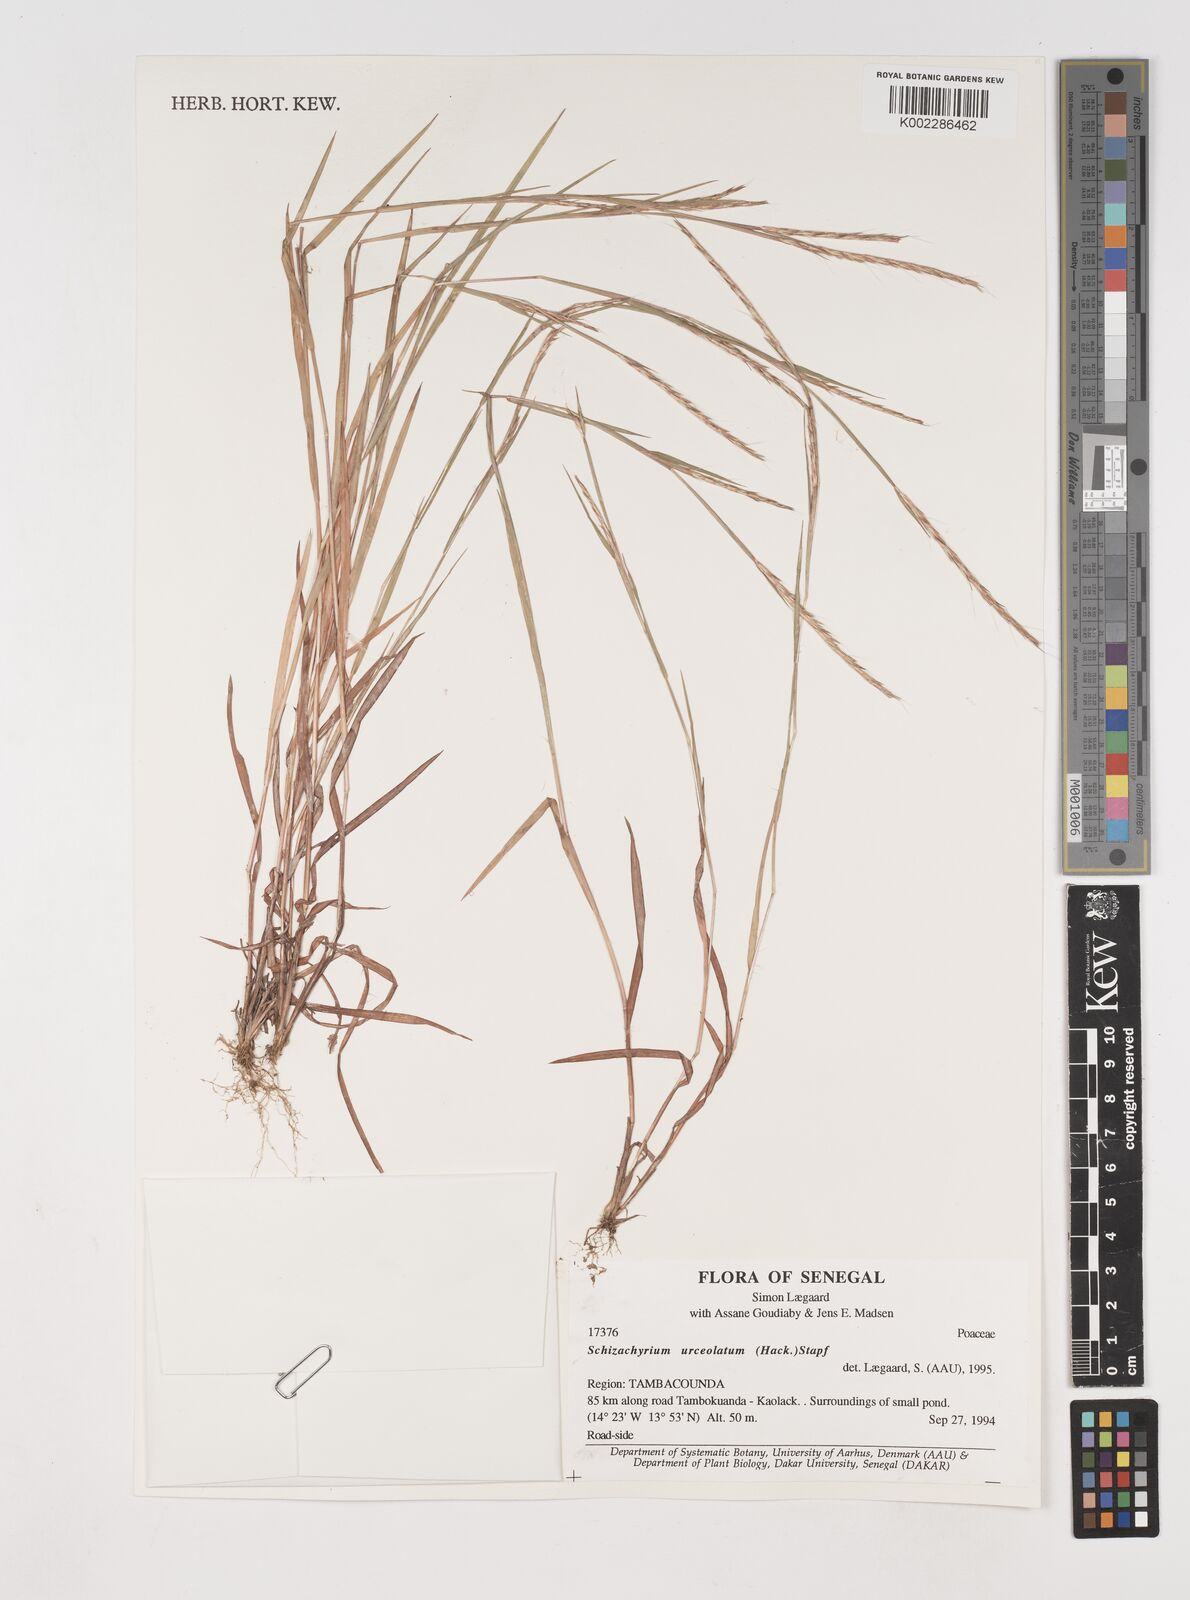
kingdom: Plantae
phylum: Tracheophyta
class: Liliopsida
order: Poales
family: Poaceae
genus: Schizachyrium
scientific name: Schizachyrium urceolatum
